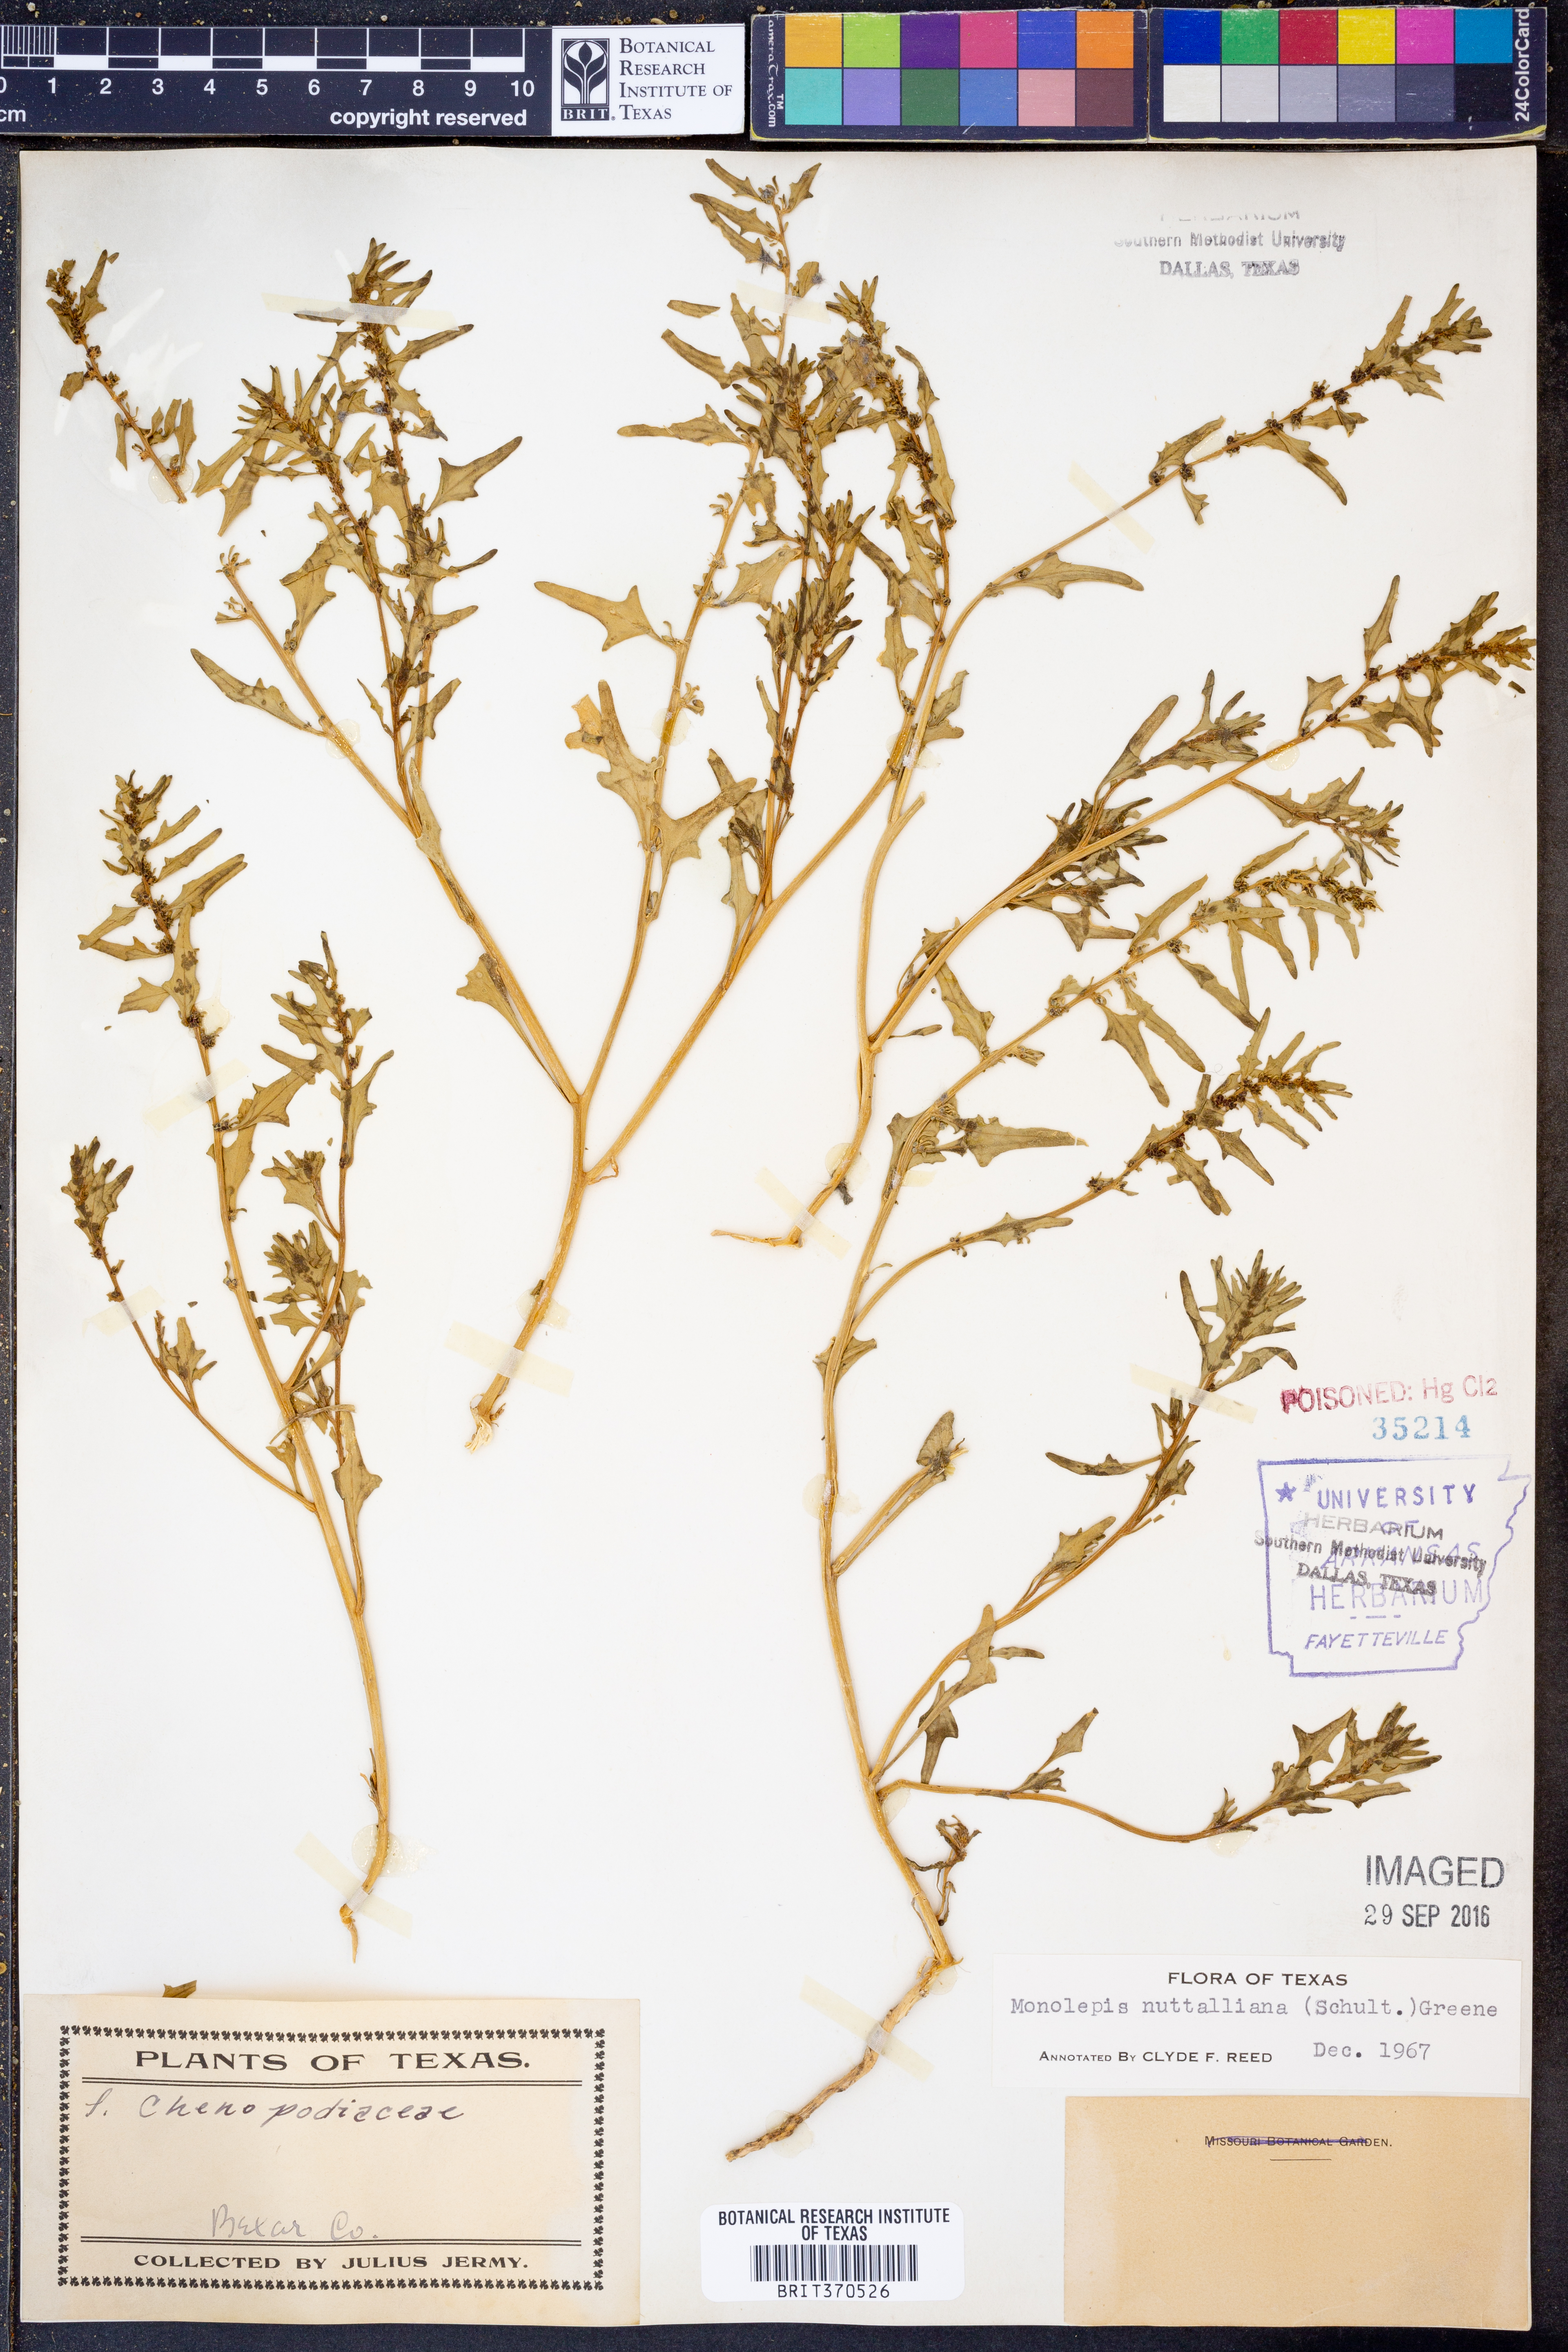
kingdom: Plantae
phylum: Tracheophyta
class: Magnoliopsida
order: Caryophyllales
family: Amaranthaceae
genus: Blitum
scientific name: Blitum nuttallianum
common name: Poverty-weed
